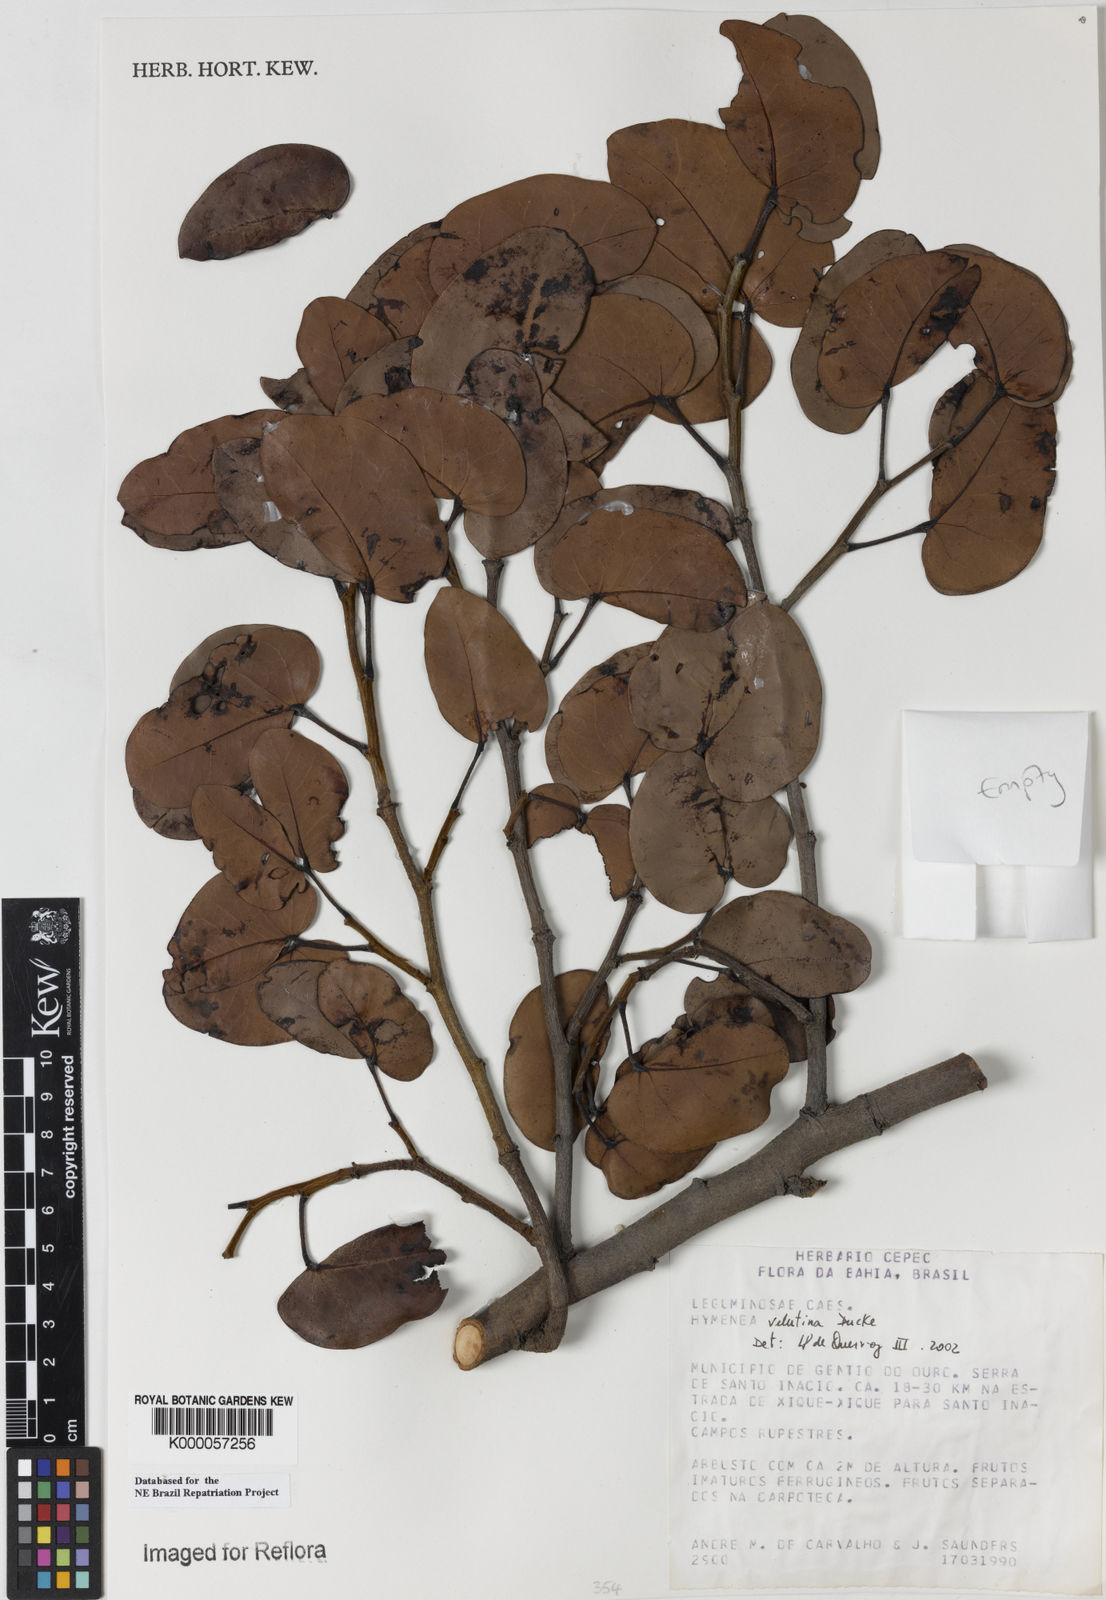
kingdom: Plantae
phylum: Tracheophyta
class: Magnoliopsida
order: Fabales
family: Fabaceae
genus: Hymenaea
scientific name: Hymenaea velutina
